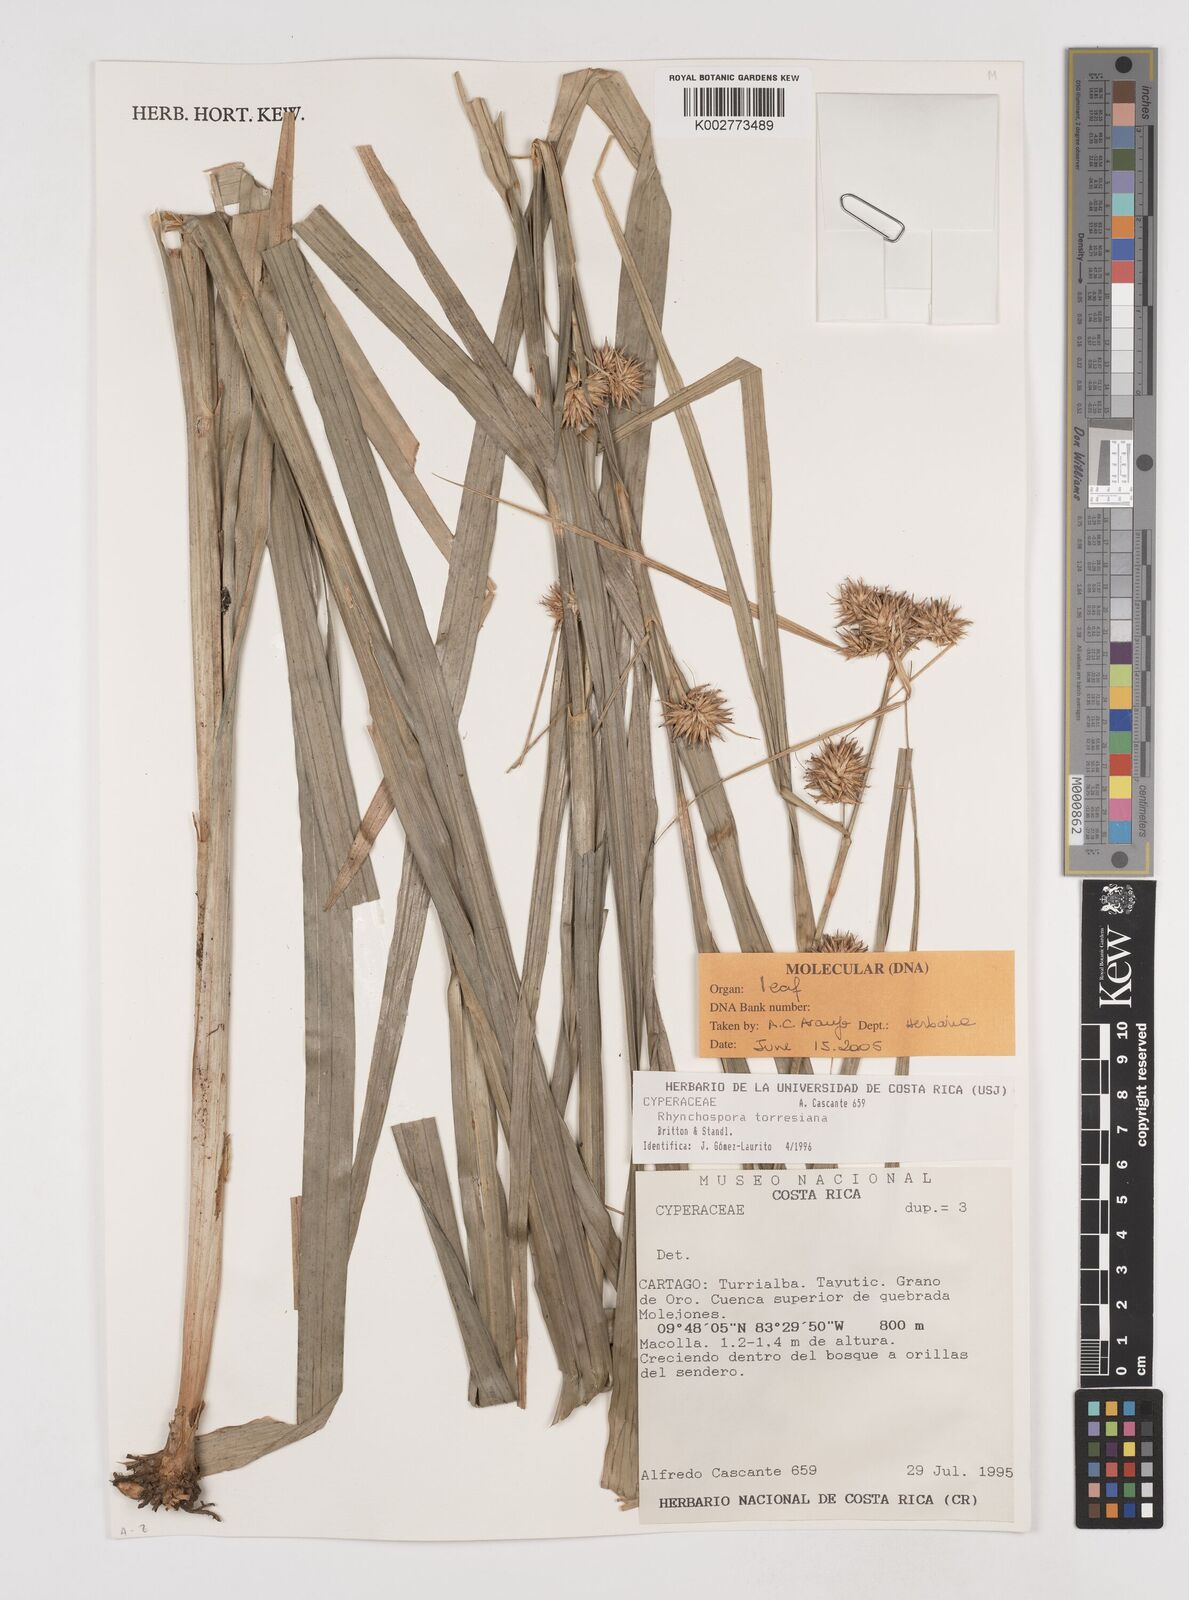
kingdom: Plantae
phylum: Tracheophyta
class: Liliopsida
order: Poales
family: Cyperaceae
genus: Rhynchospora
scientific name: Rhynchospora torresiana
